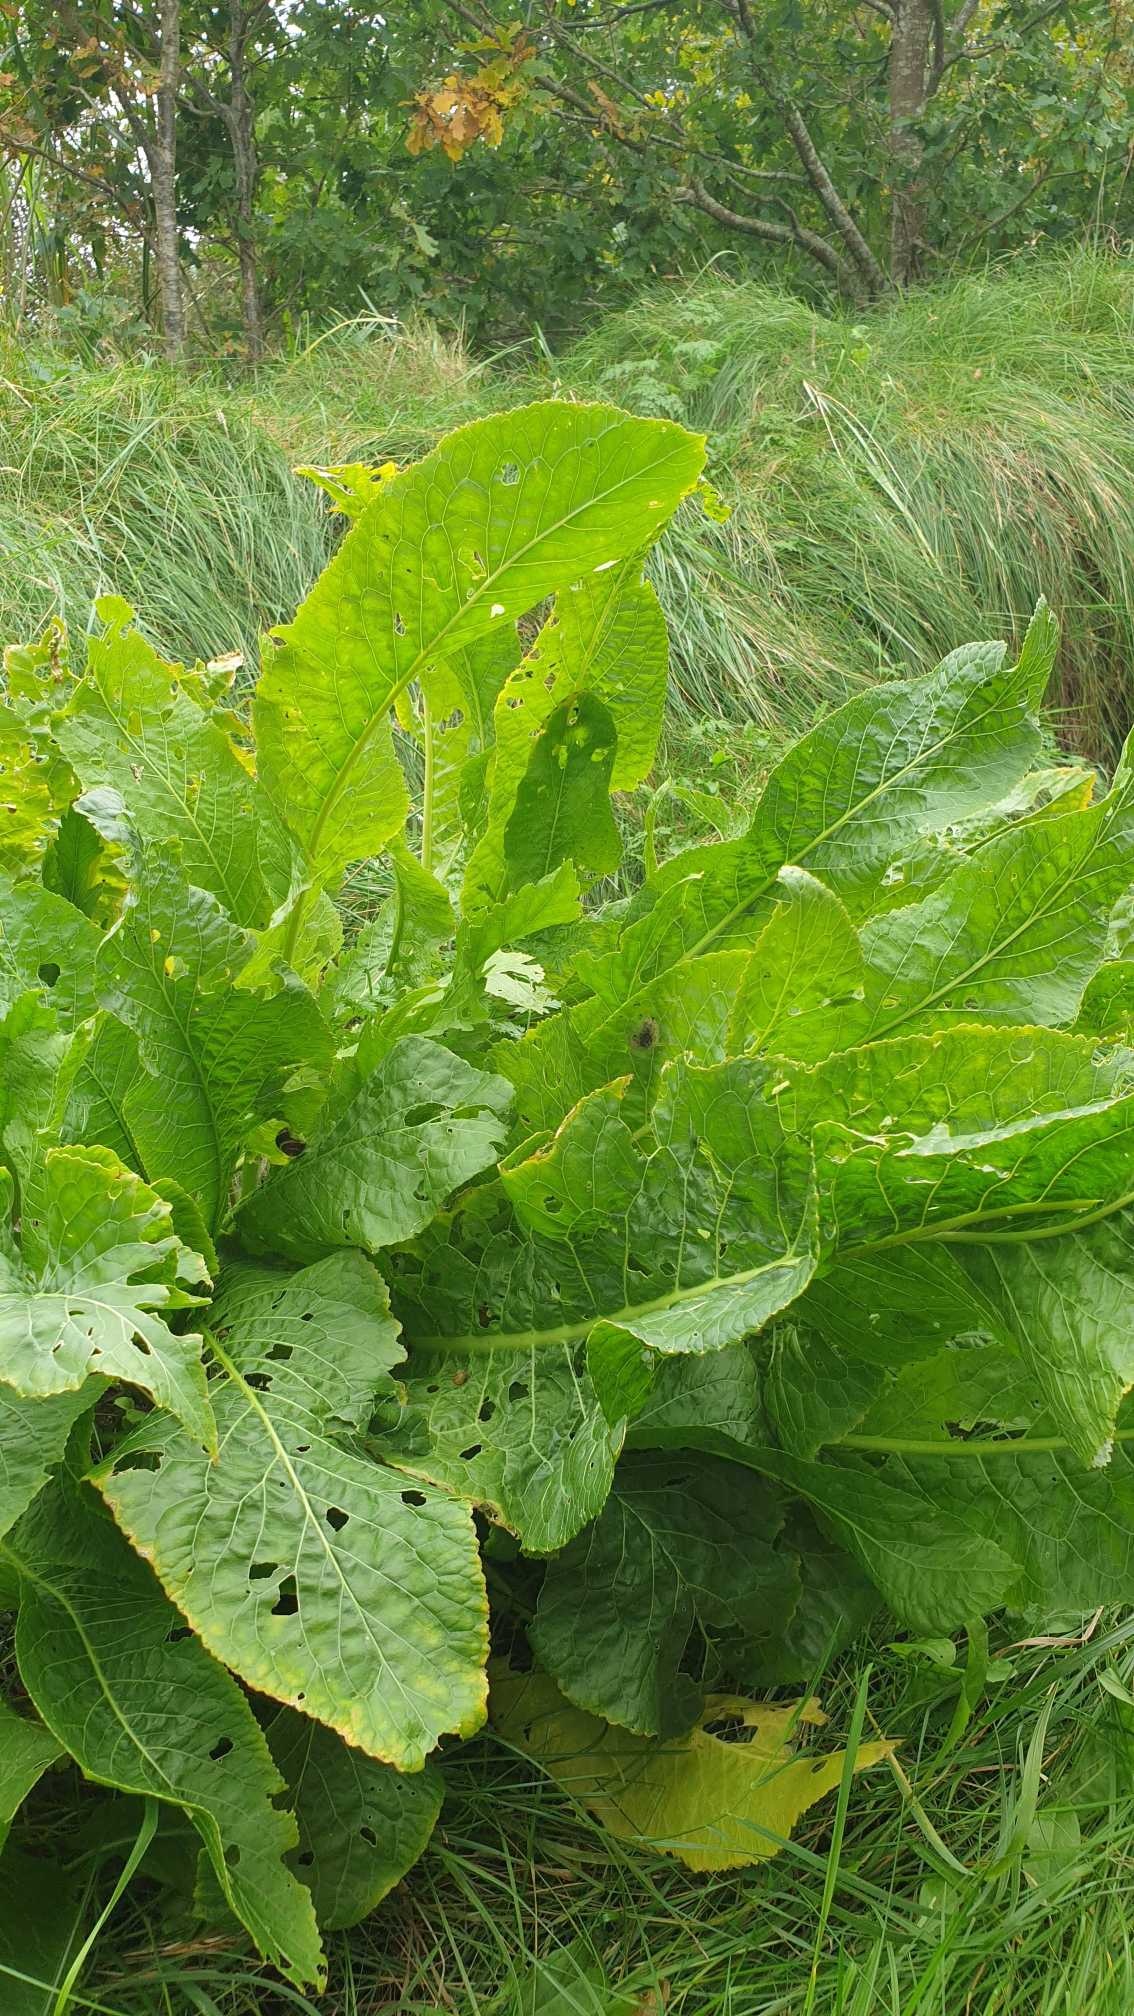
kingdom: Plantae
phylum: Tracheophyta
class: Magnoliopsida
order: Brassicales
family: Brassicaceae
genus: Armoracia
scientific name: Armoracia rusticana
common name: Peberrod
